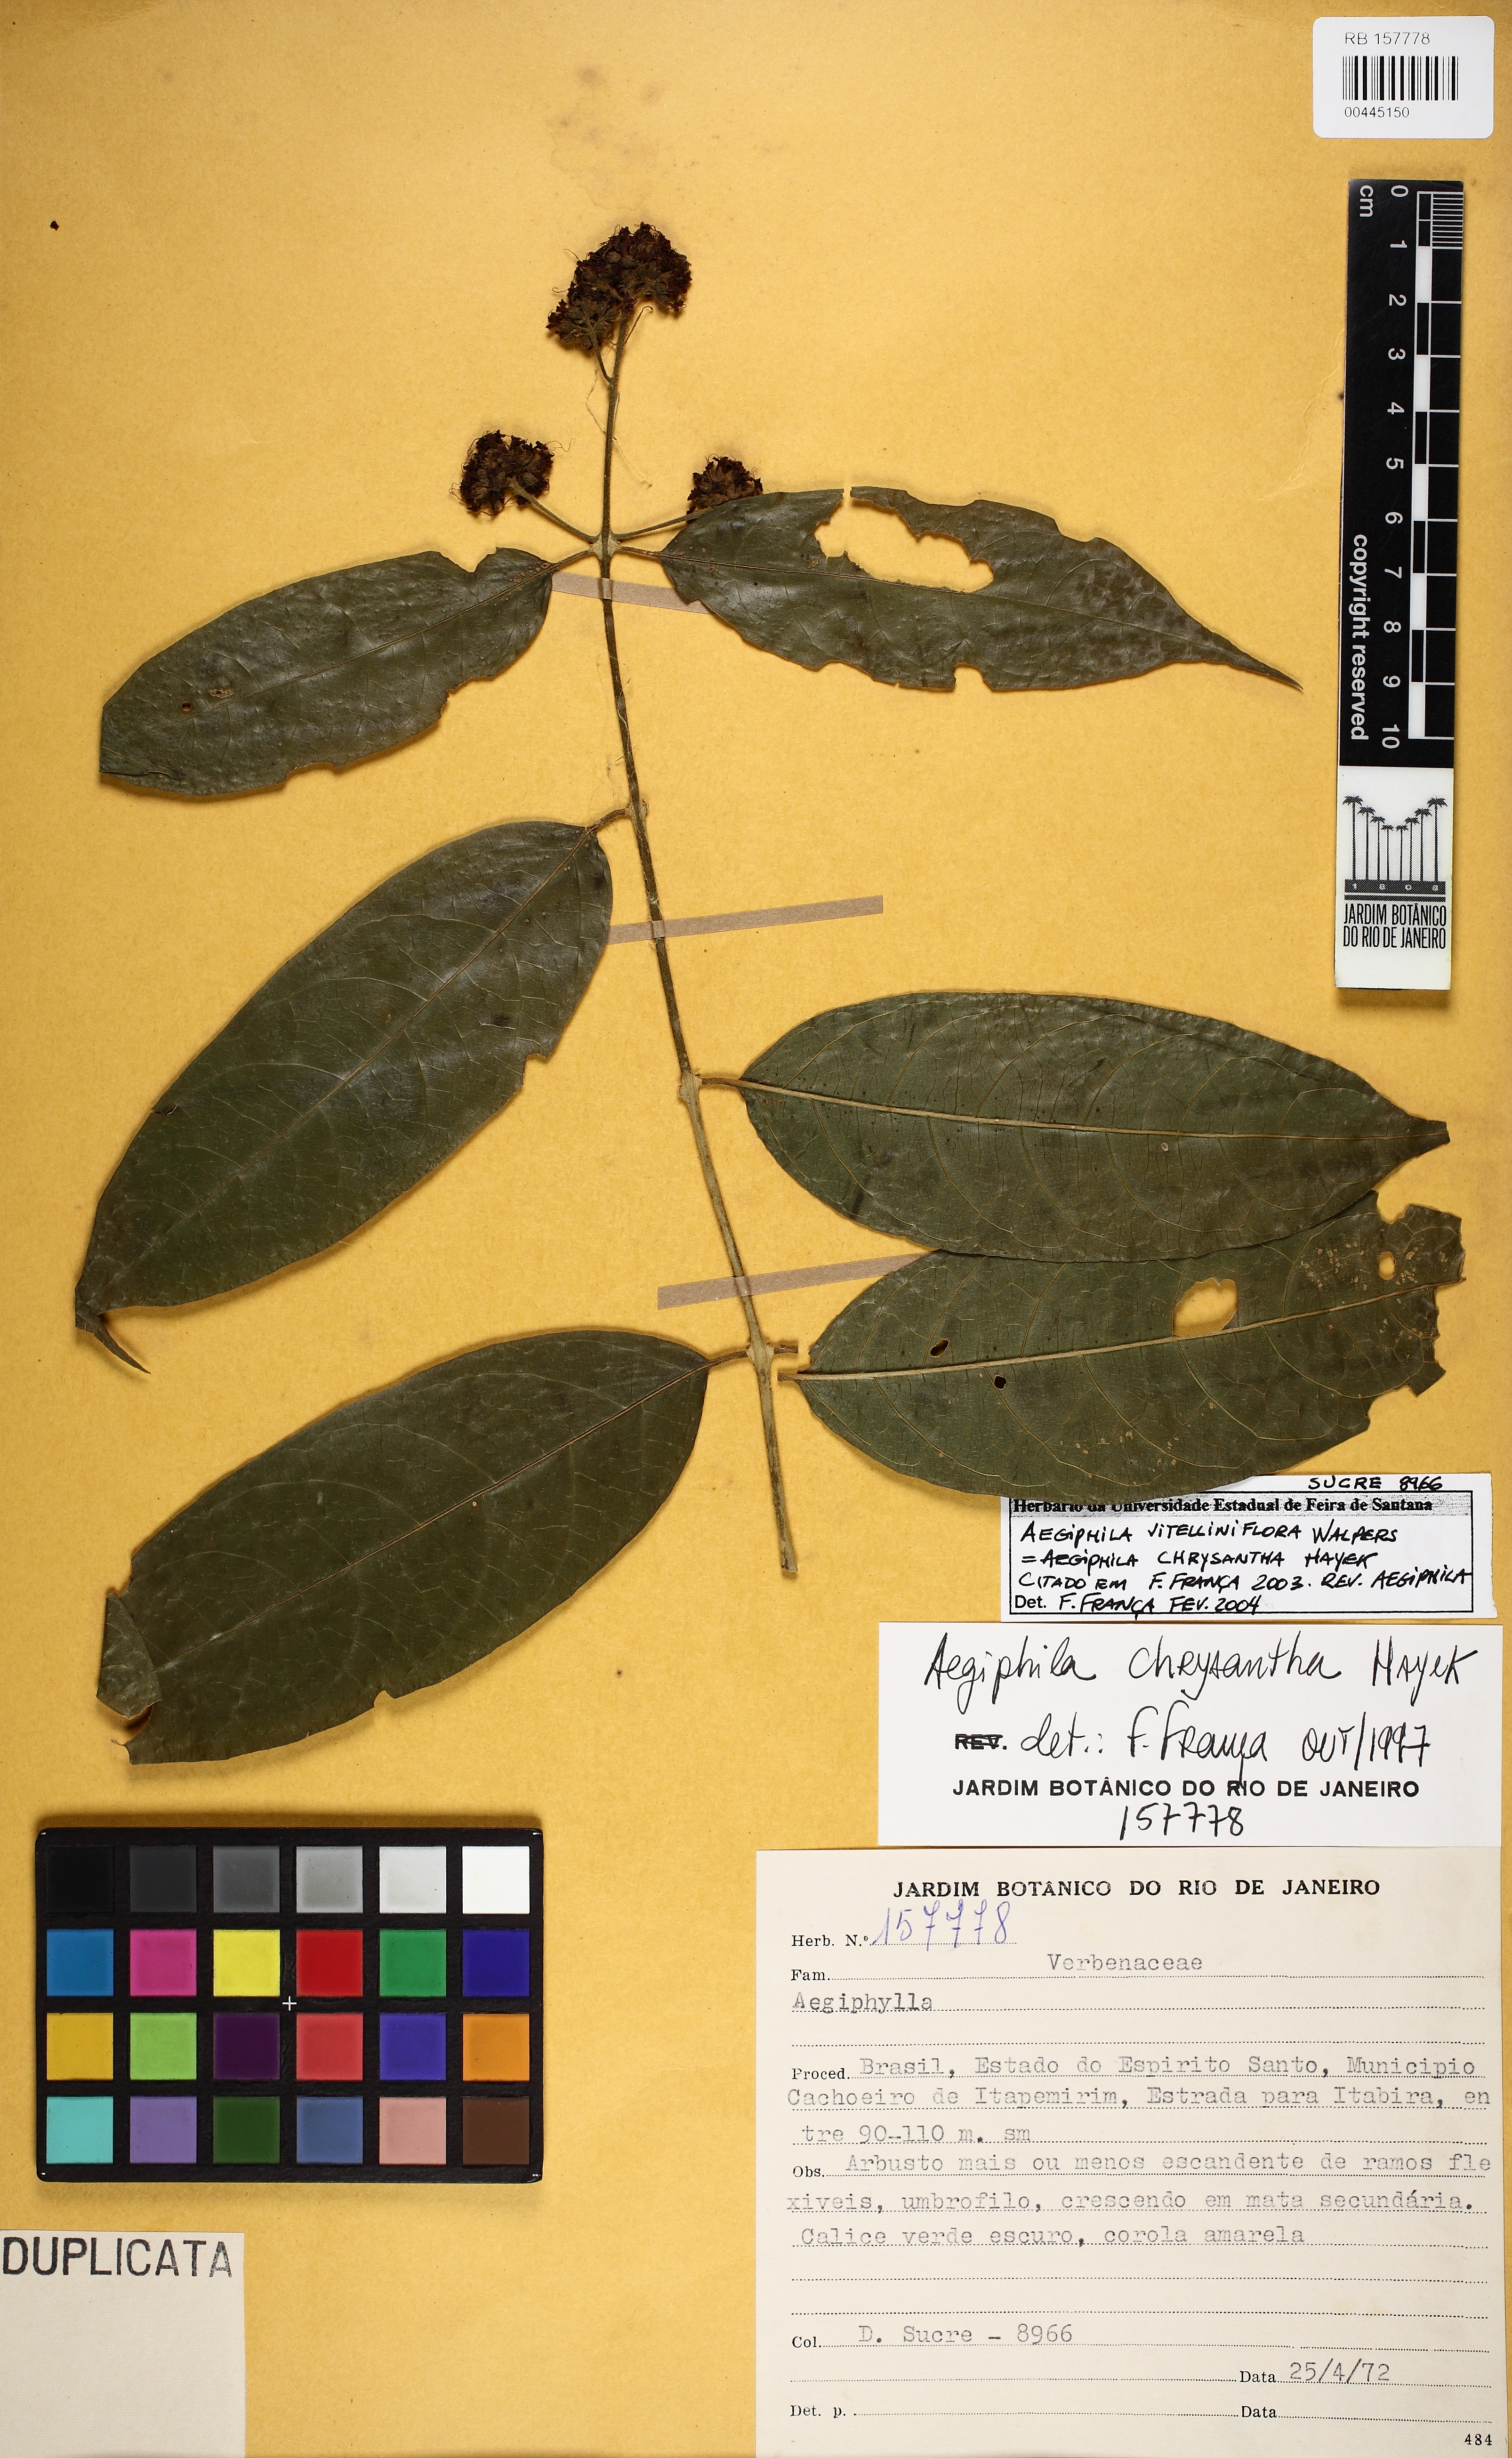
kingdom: Plantae
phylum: Tracheophyta
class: Magnoliopsida
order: Lamiales
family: Lamiaceae
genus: Aegiphila
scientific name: Aegiphila vitelliniflora
